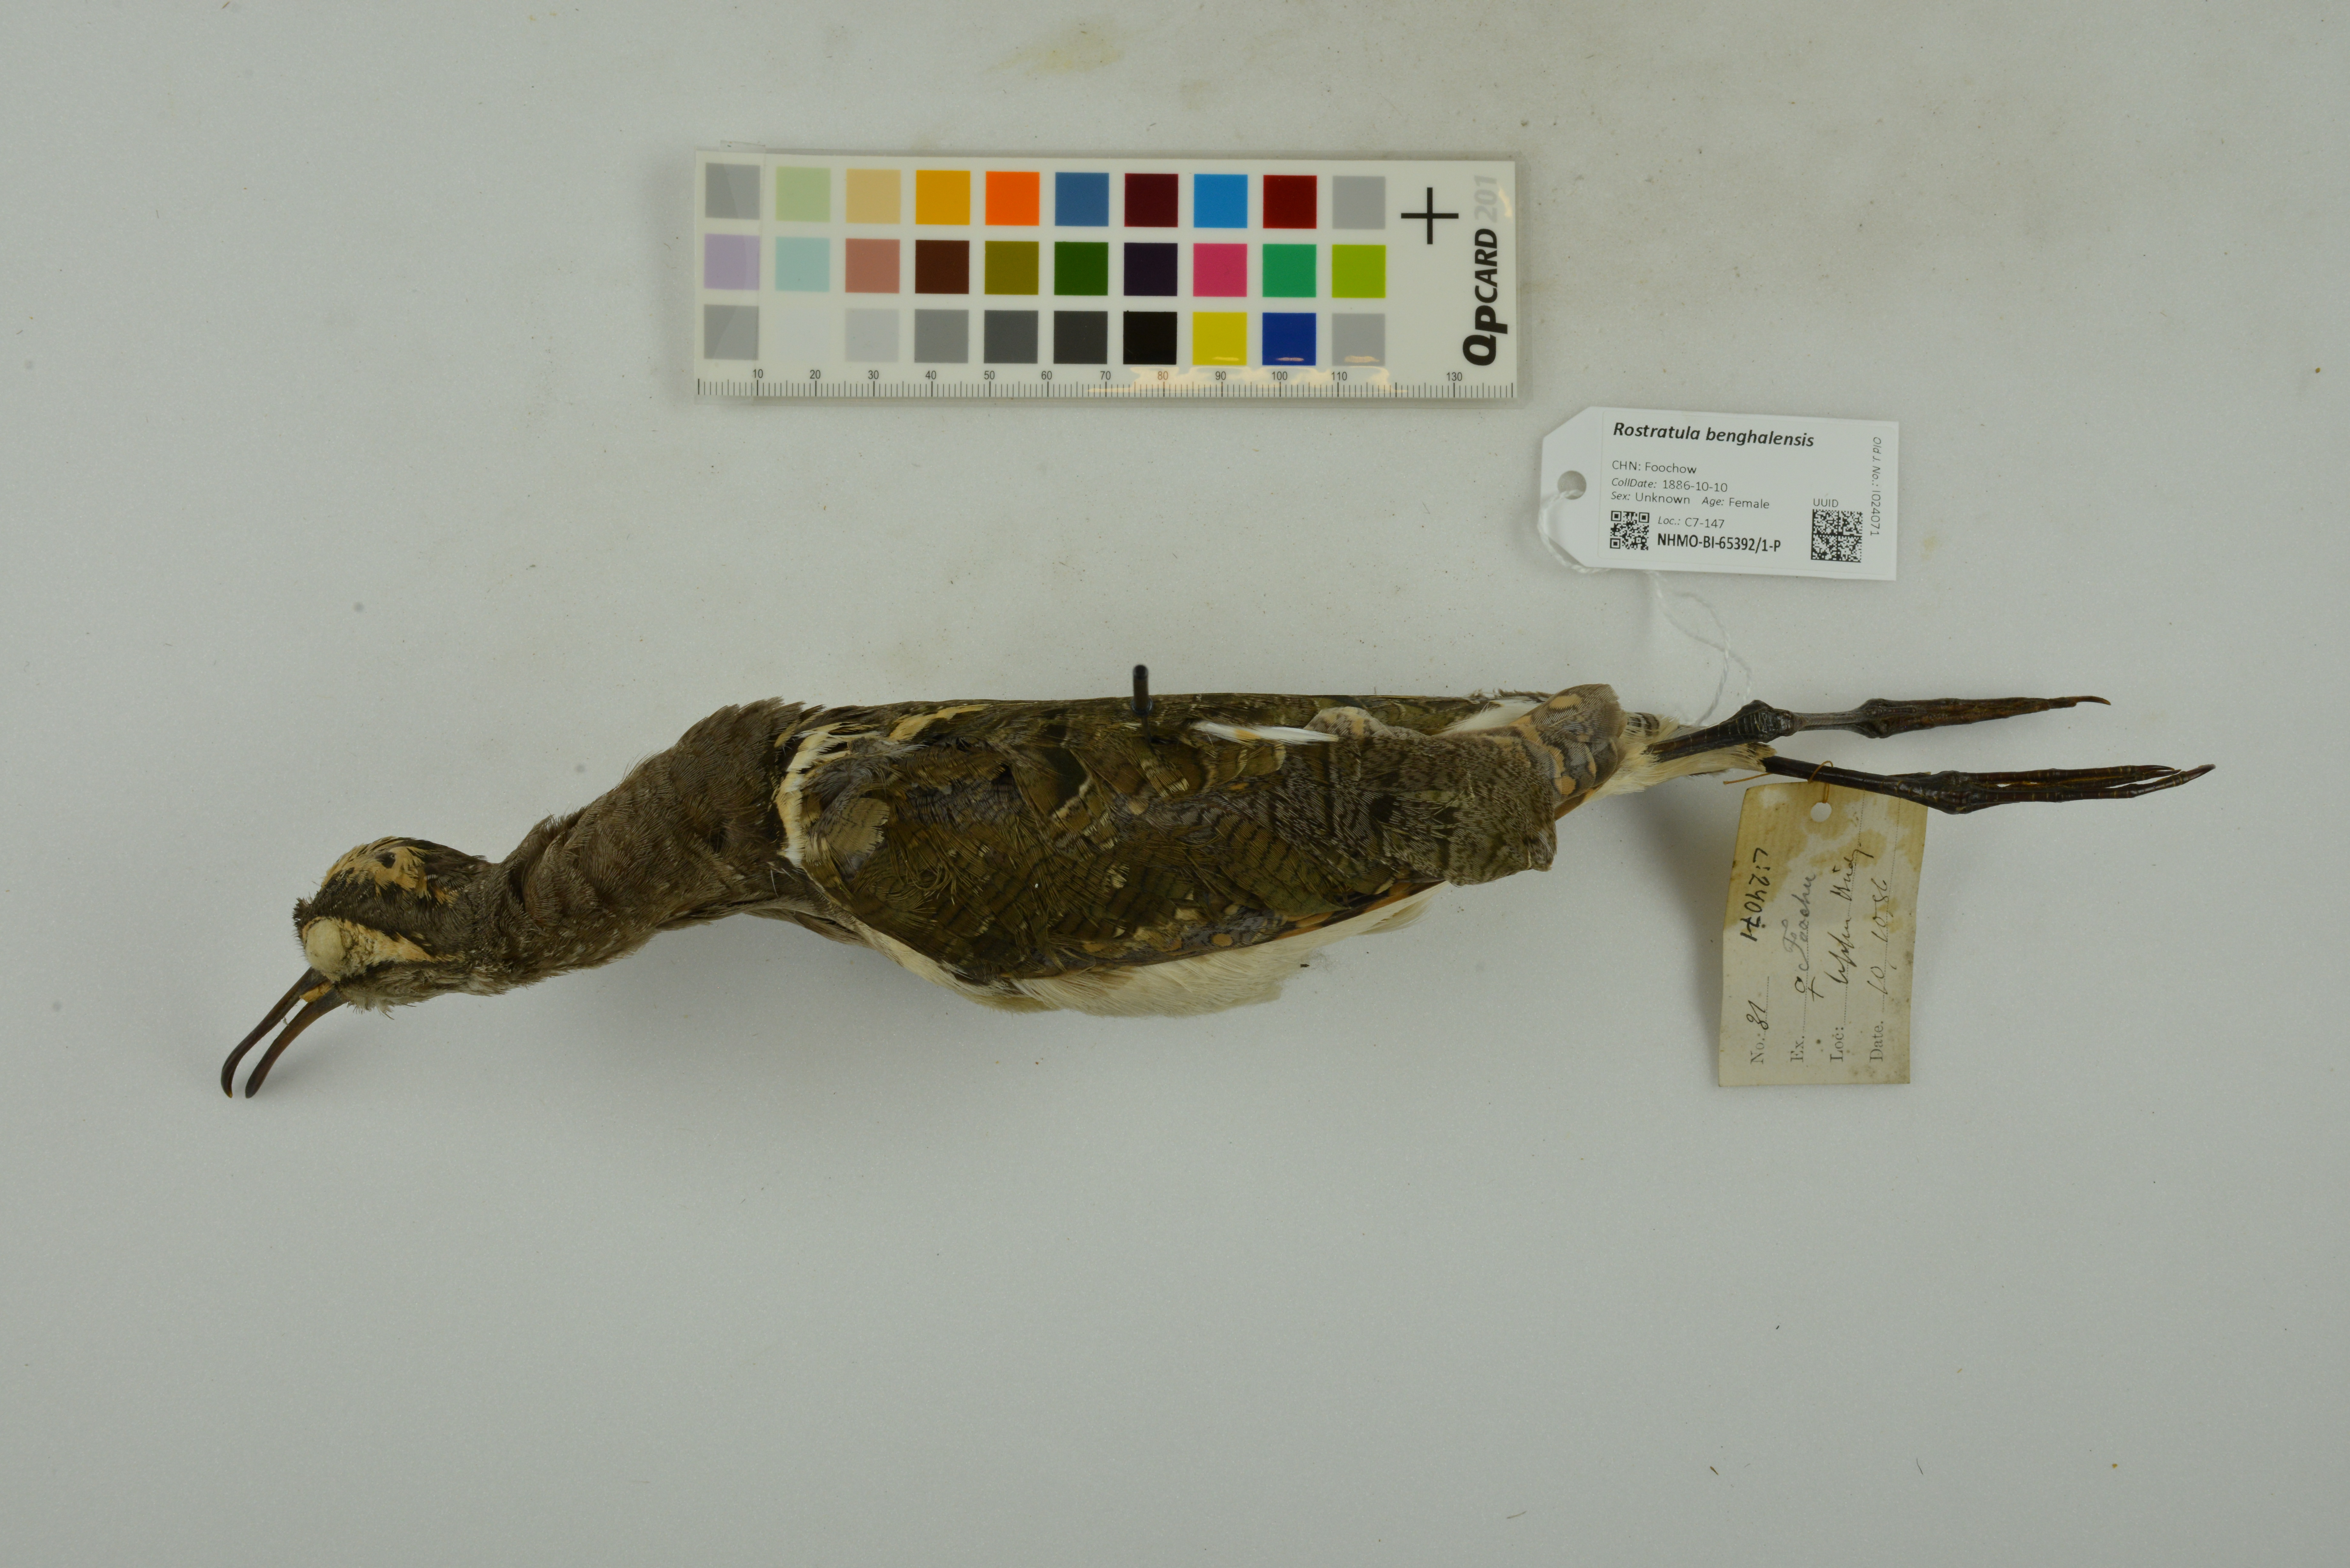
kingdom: Animalia
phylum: Chordata
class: Aves
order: Charadriiformes
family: Rostratulidae
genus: Rostratula
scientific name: Rostratula benghalensis
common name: Greater painted-snipe
